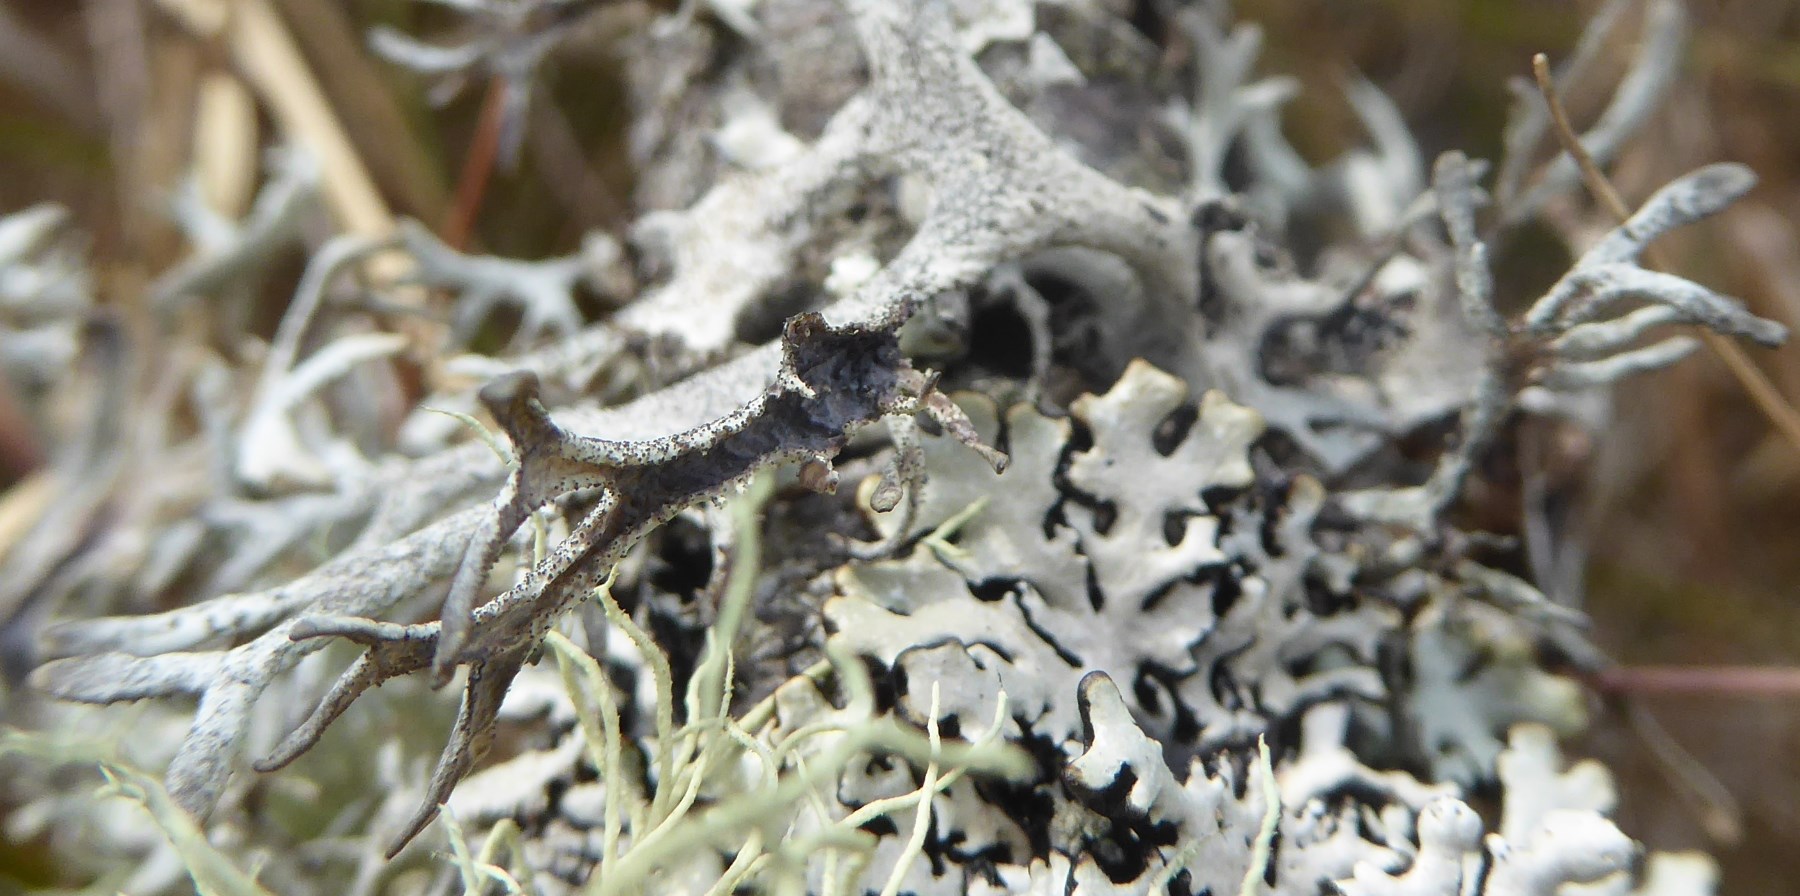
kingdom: Fungi
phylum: Ascomycota
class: Lecanoromycetes
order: Lecanorales
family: Parmeliaceae
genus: Pseudevernia
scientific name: Pseudevernia furfuracea
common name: grå fyrrelav
